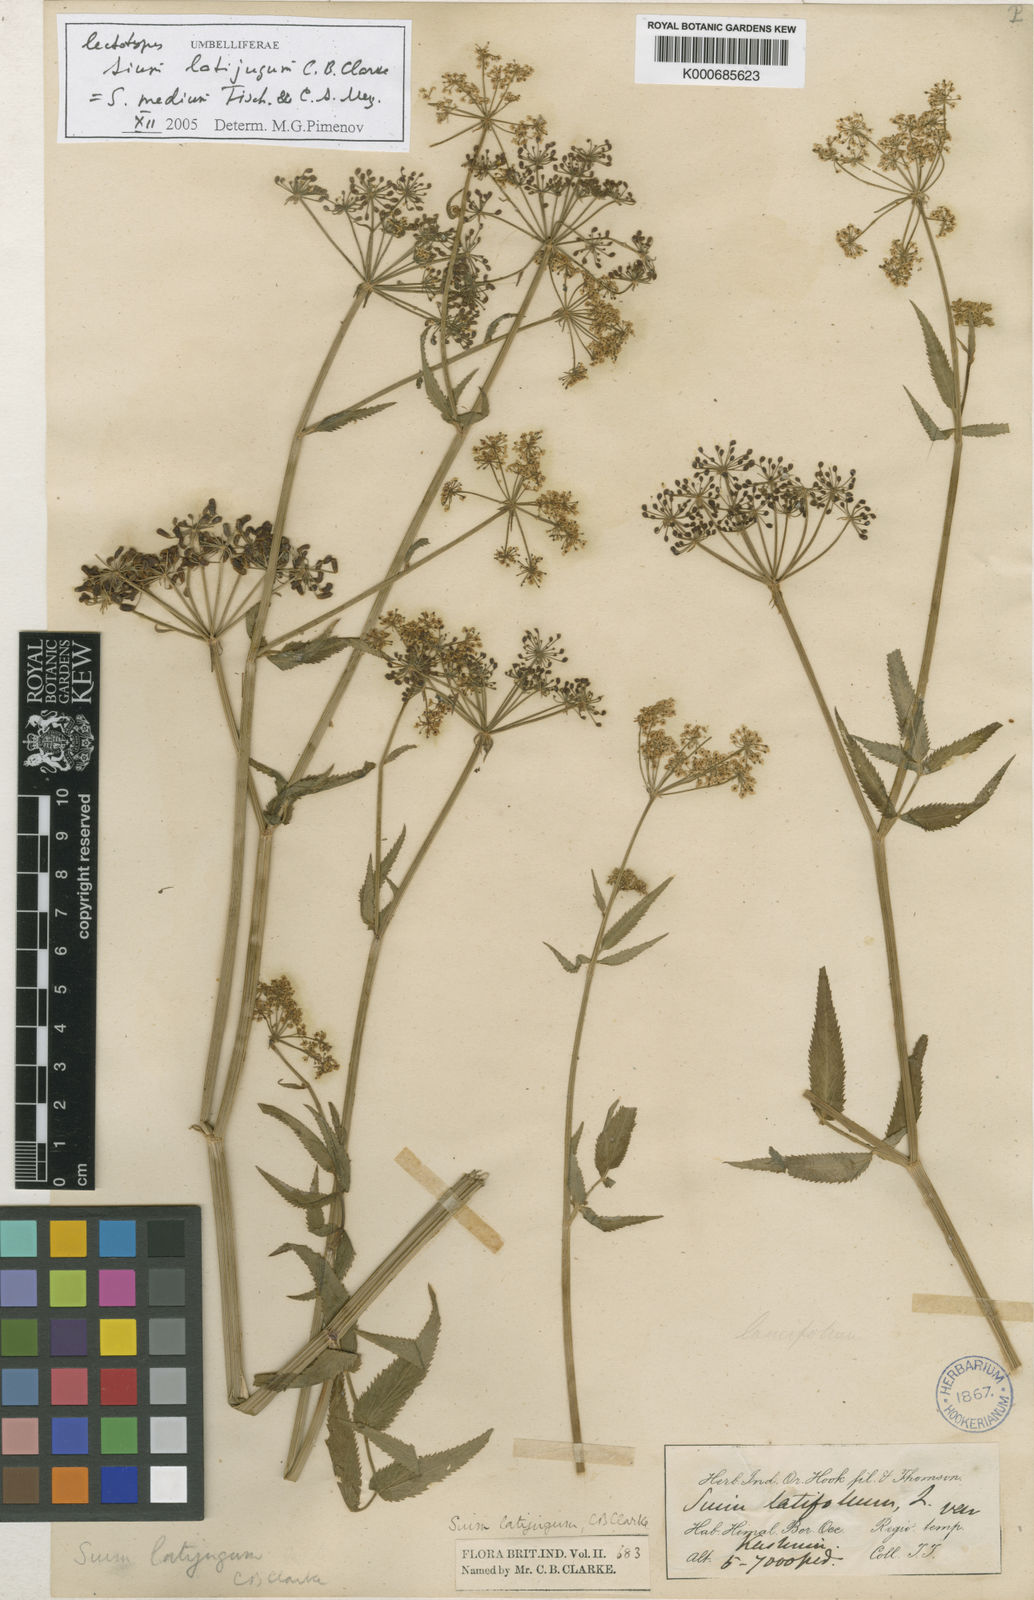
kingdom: Plantae
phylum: Tracheophyta
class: Magnoliopsida
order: Apiales
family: Apiaceae
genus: Sium
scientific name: Sium sisarum
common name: Skirret
